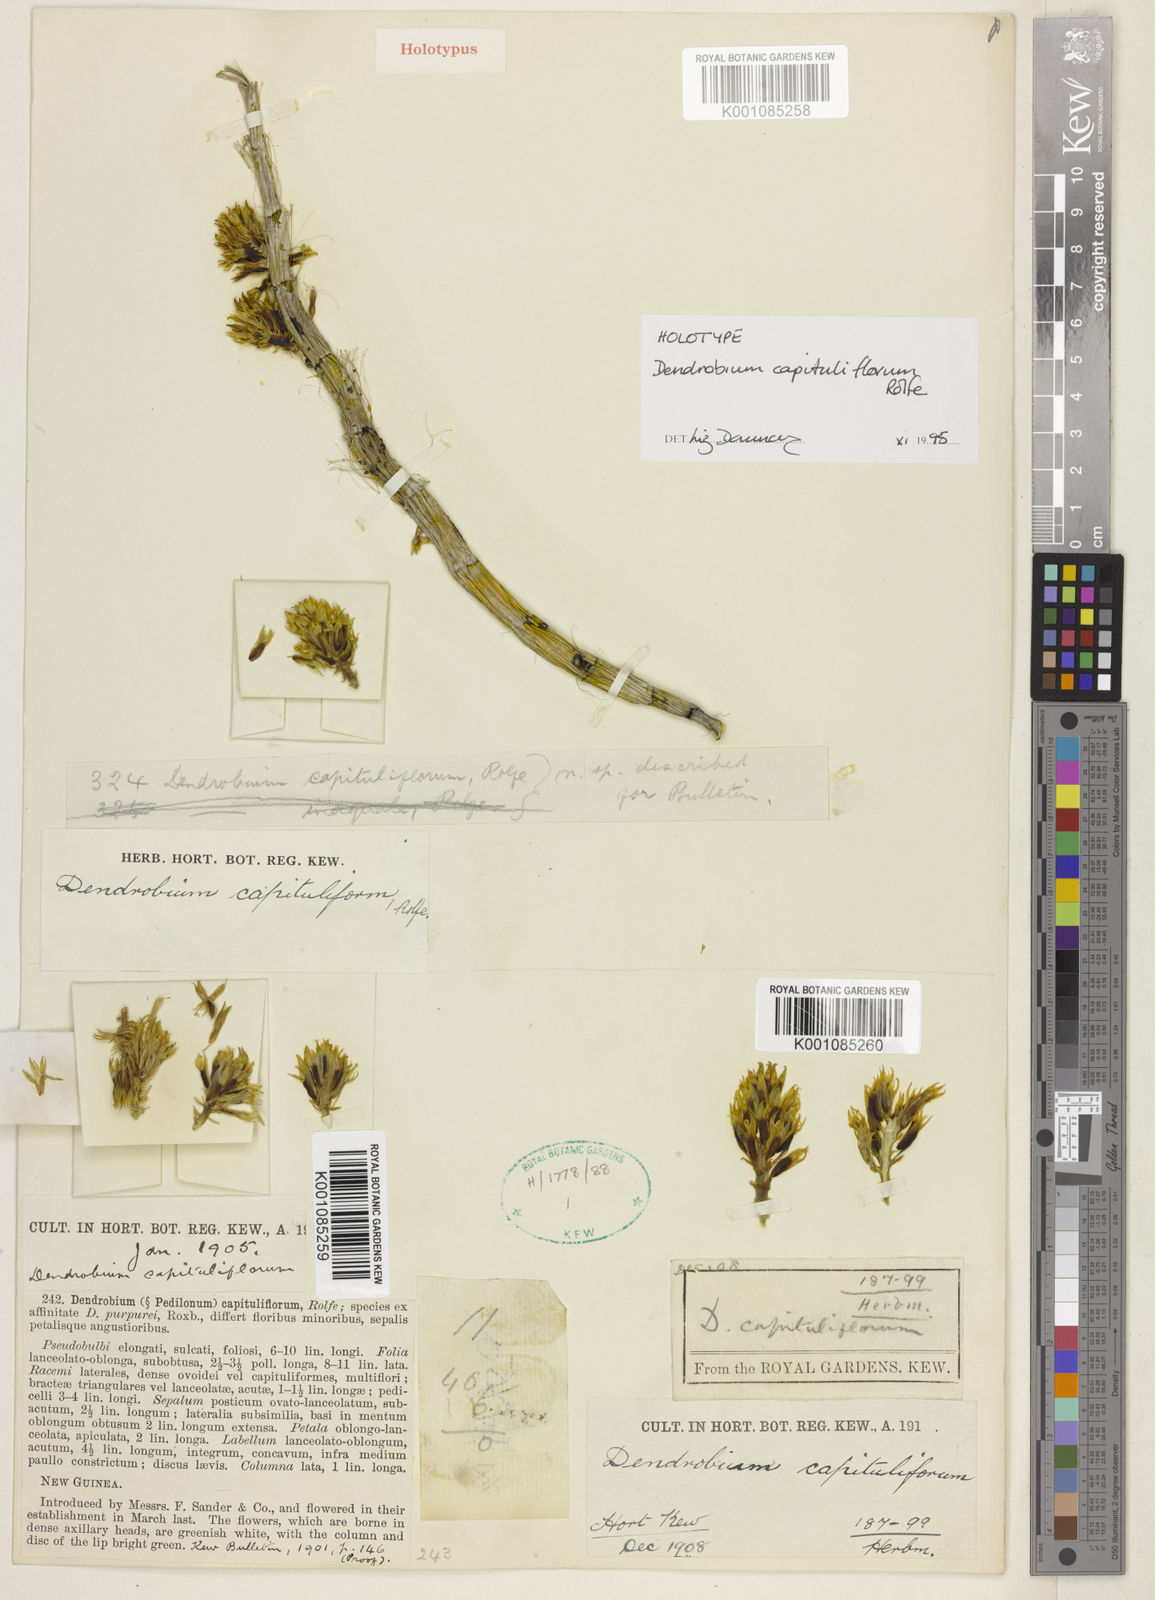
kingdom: Plantae
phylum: Tracheophyta
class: Liliopsida
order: Asparagales
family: Orchidaceae
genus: Dendrobium
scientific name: Dendrobium capituliflorum
